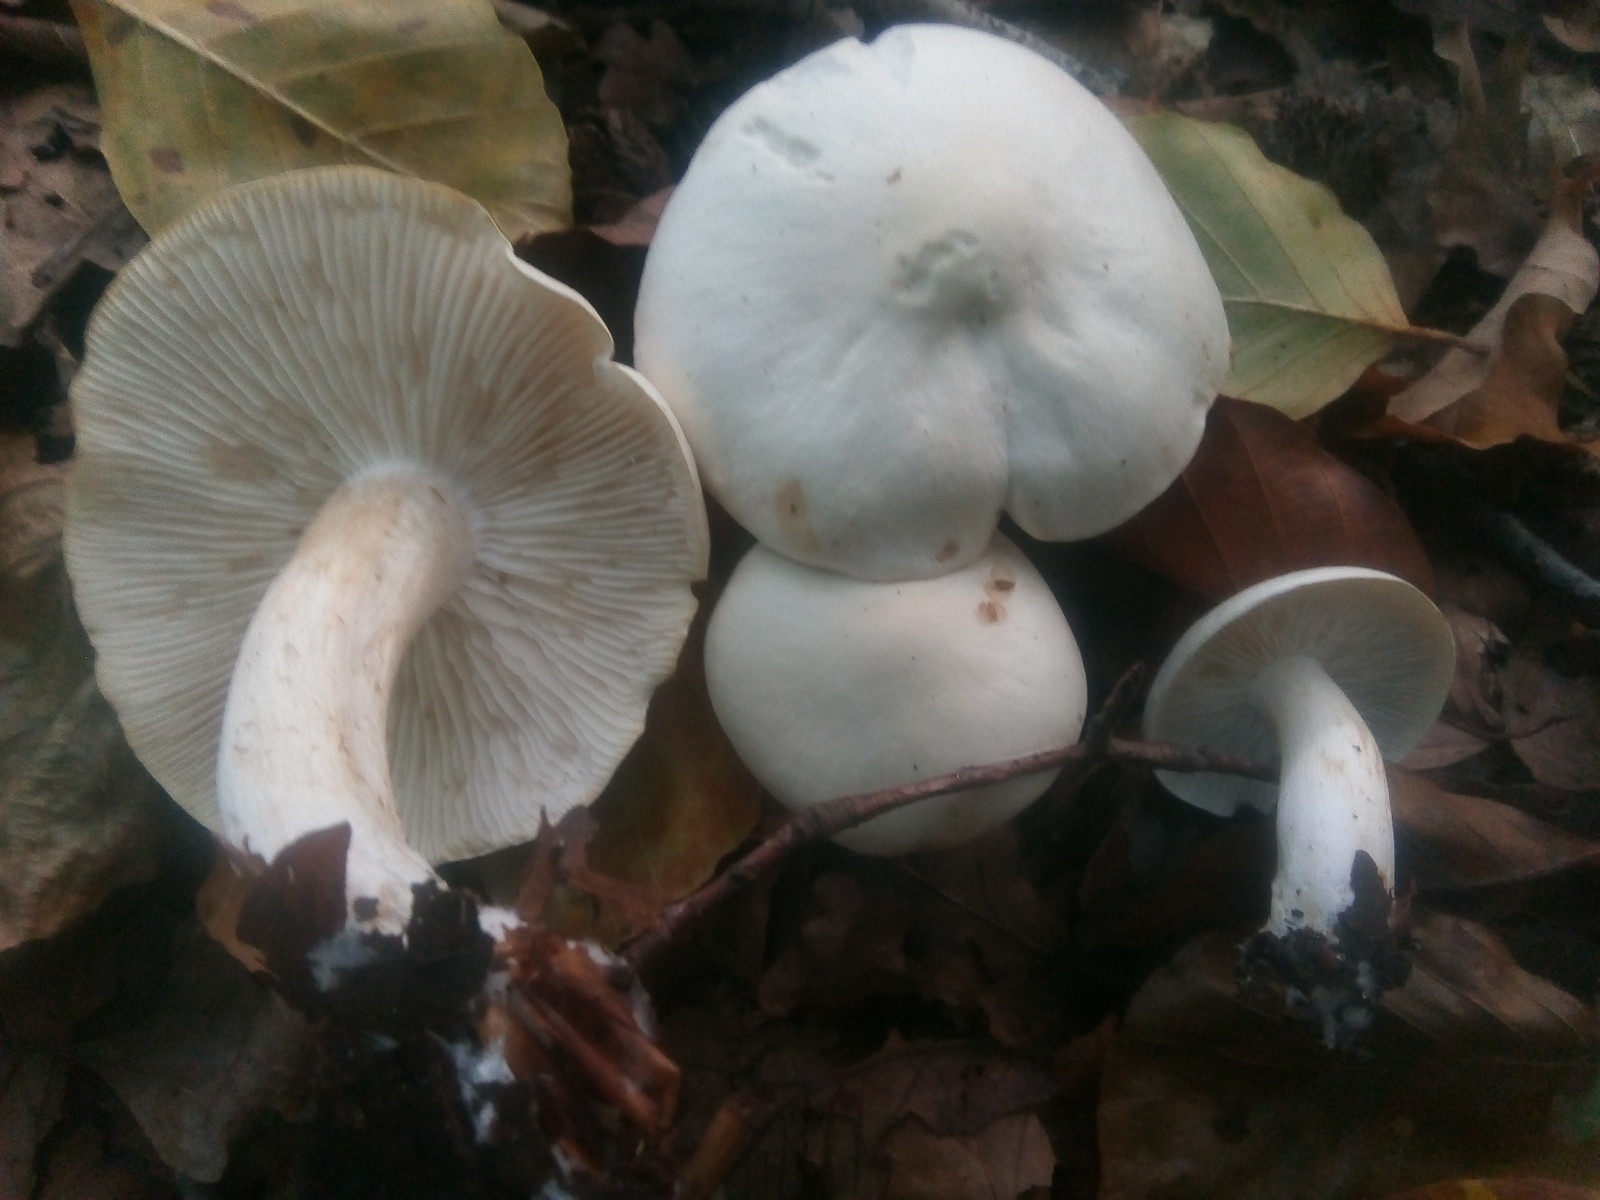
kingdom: Fungi
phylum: Basidiomycota
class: Agaricomycetes
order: Agaricales
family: Tricholomataceae
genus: Tricholoma
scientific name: Tricholoma lascivum
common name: stinkende ridderhat
